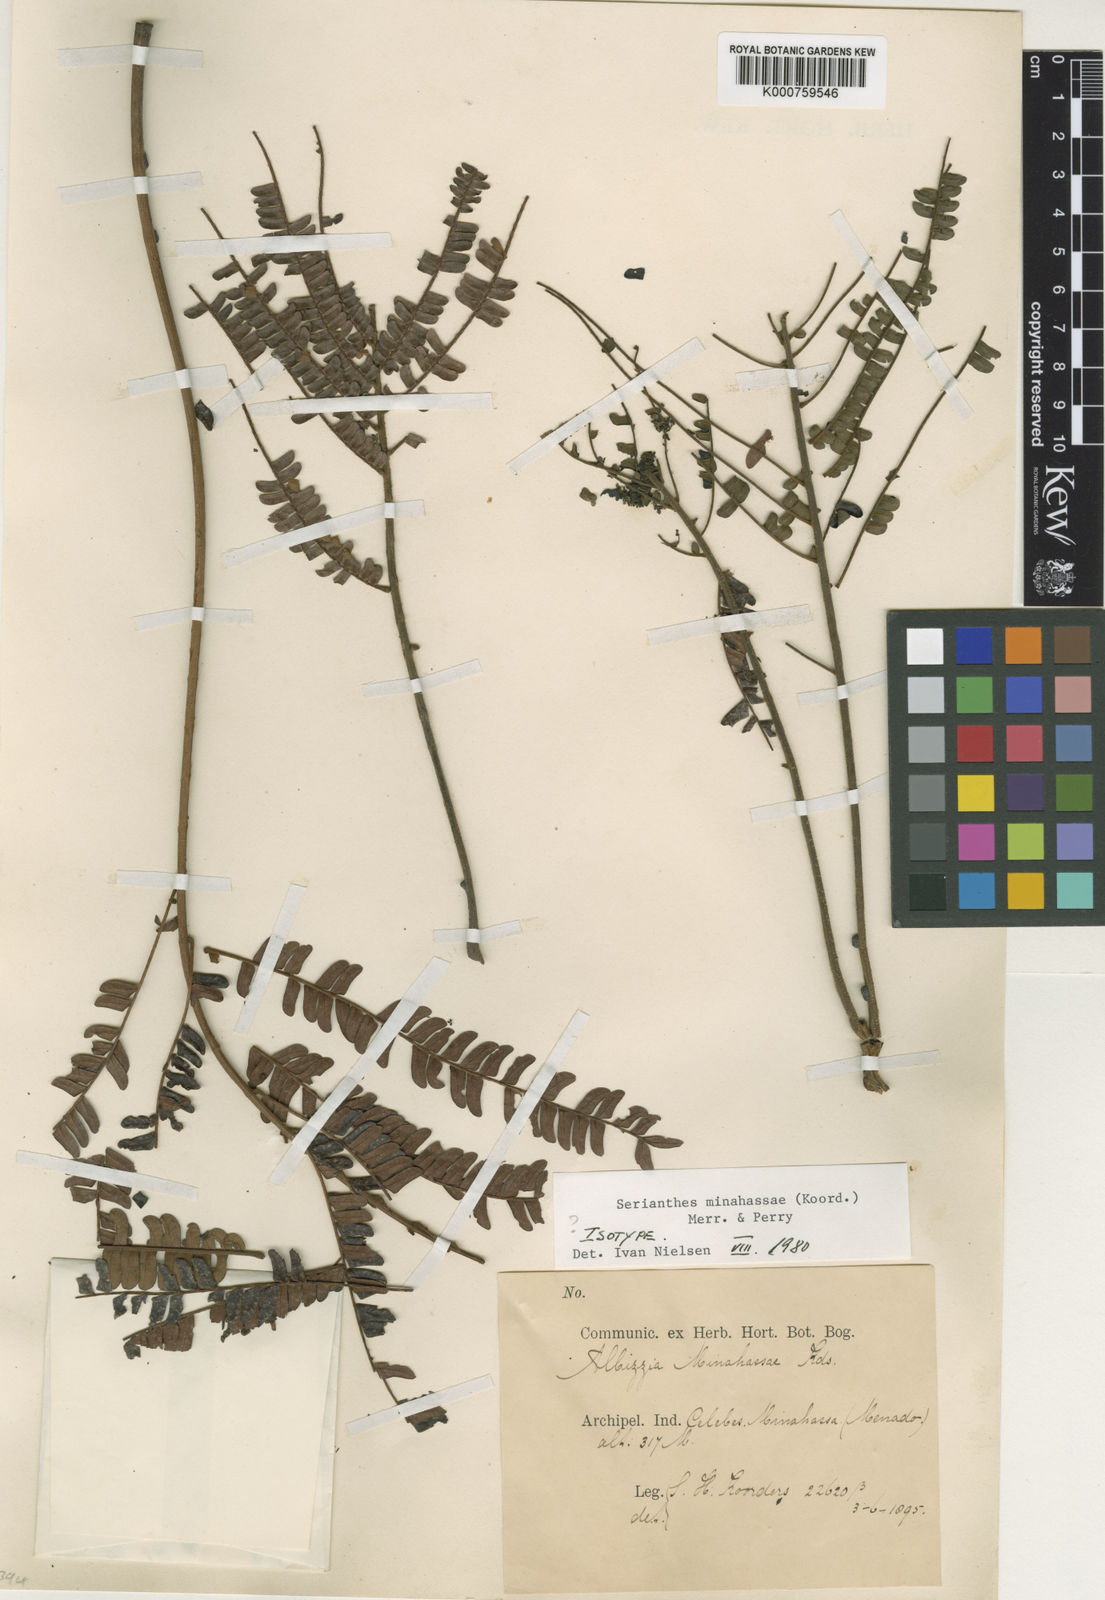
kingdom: Plantae
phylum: Tracheophyta
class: Magnoliopsida
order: Fabales
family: Fabaceae
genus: Serianthes
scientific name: Serianthes minahassae
